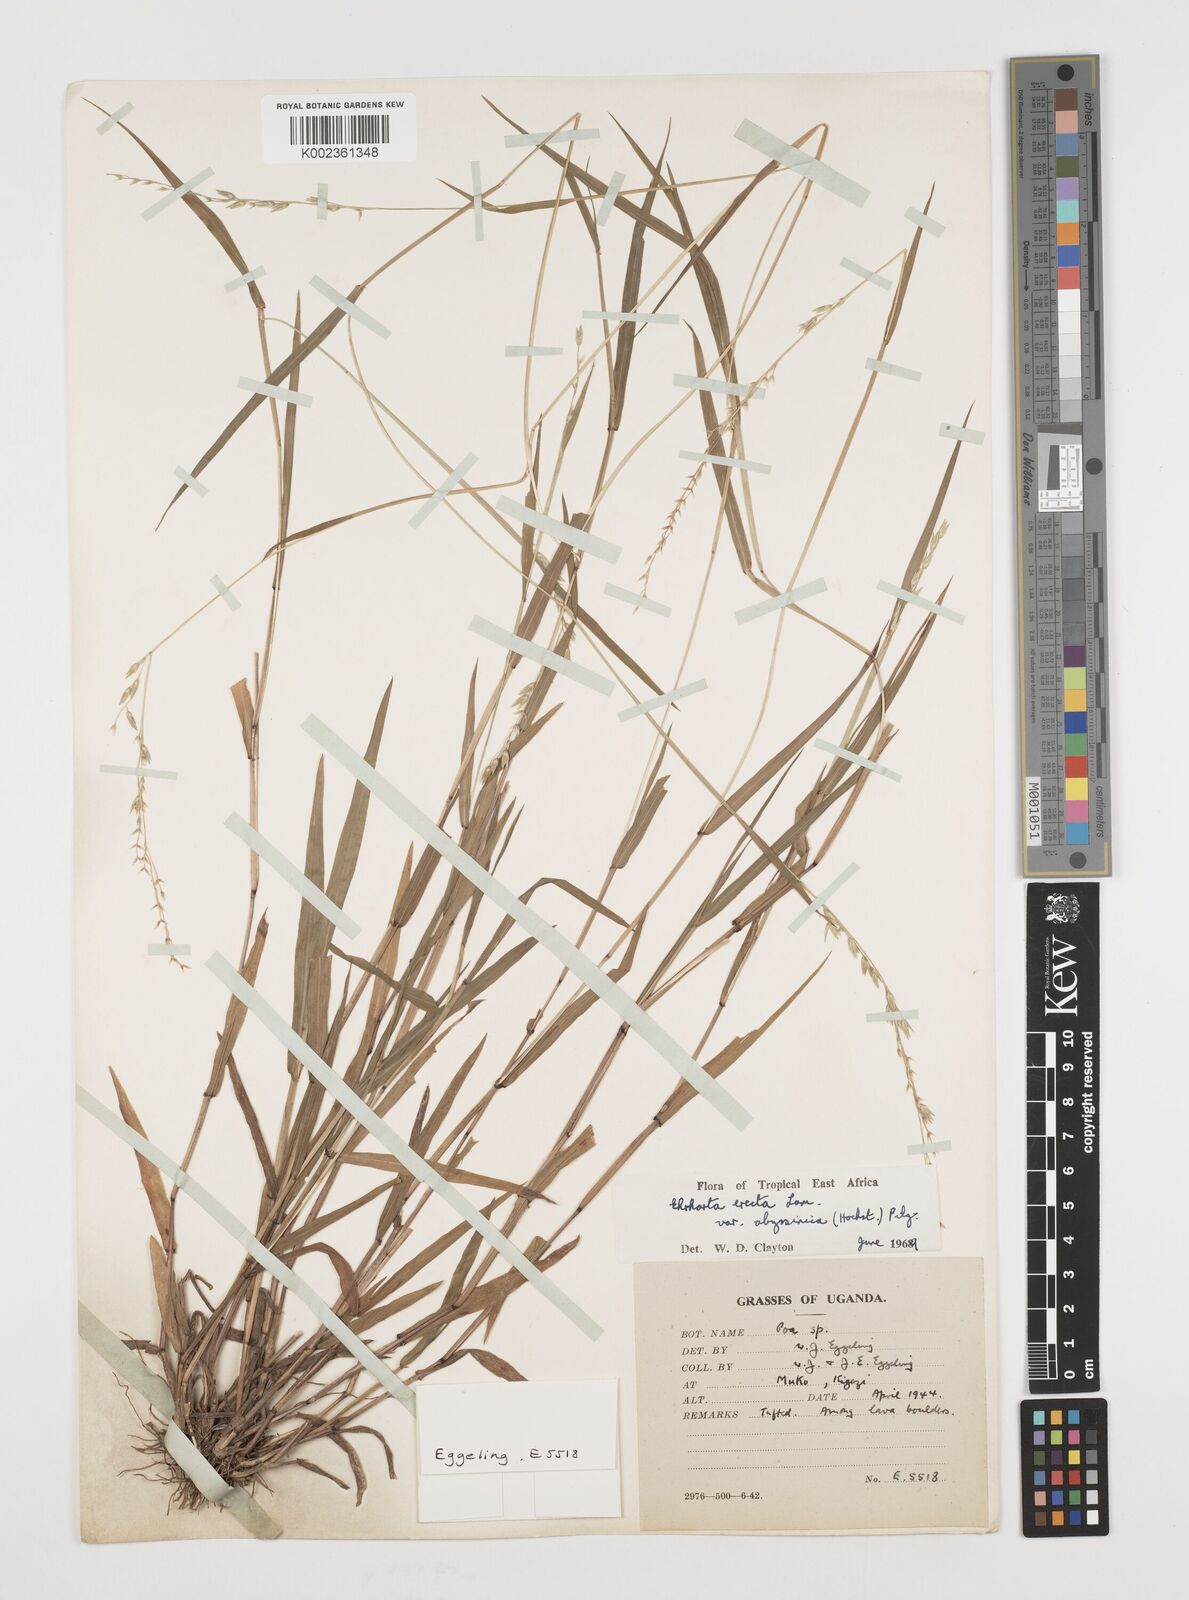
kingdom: Plantae
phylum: Tracheophyta
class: Liliopsida
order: Poales
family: Poaceae
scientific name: Poaceae
